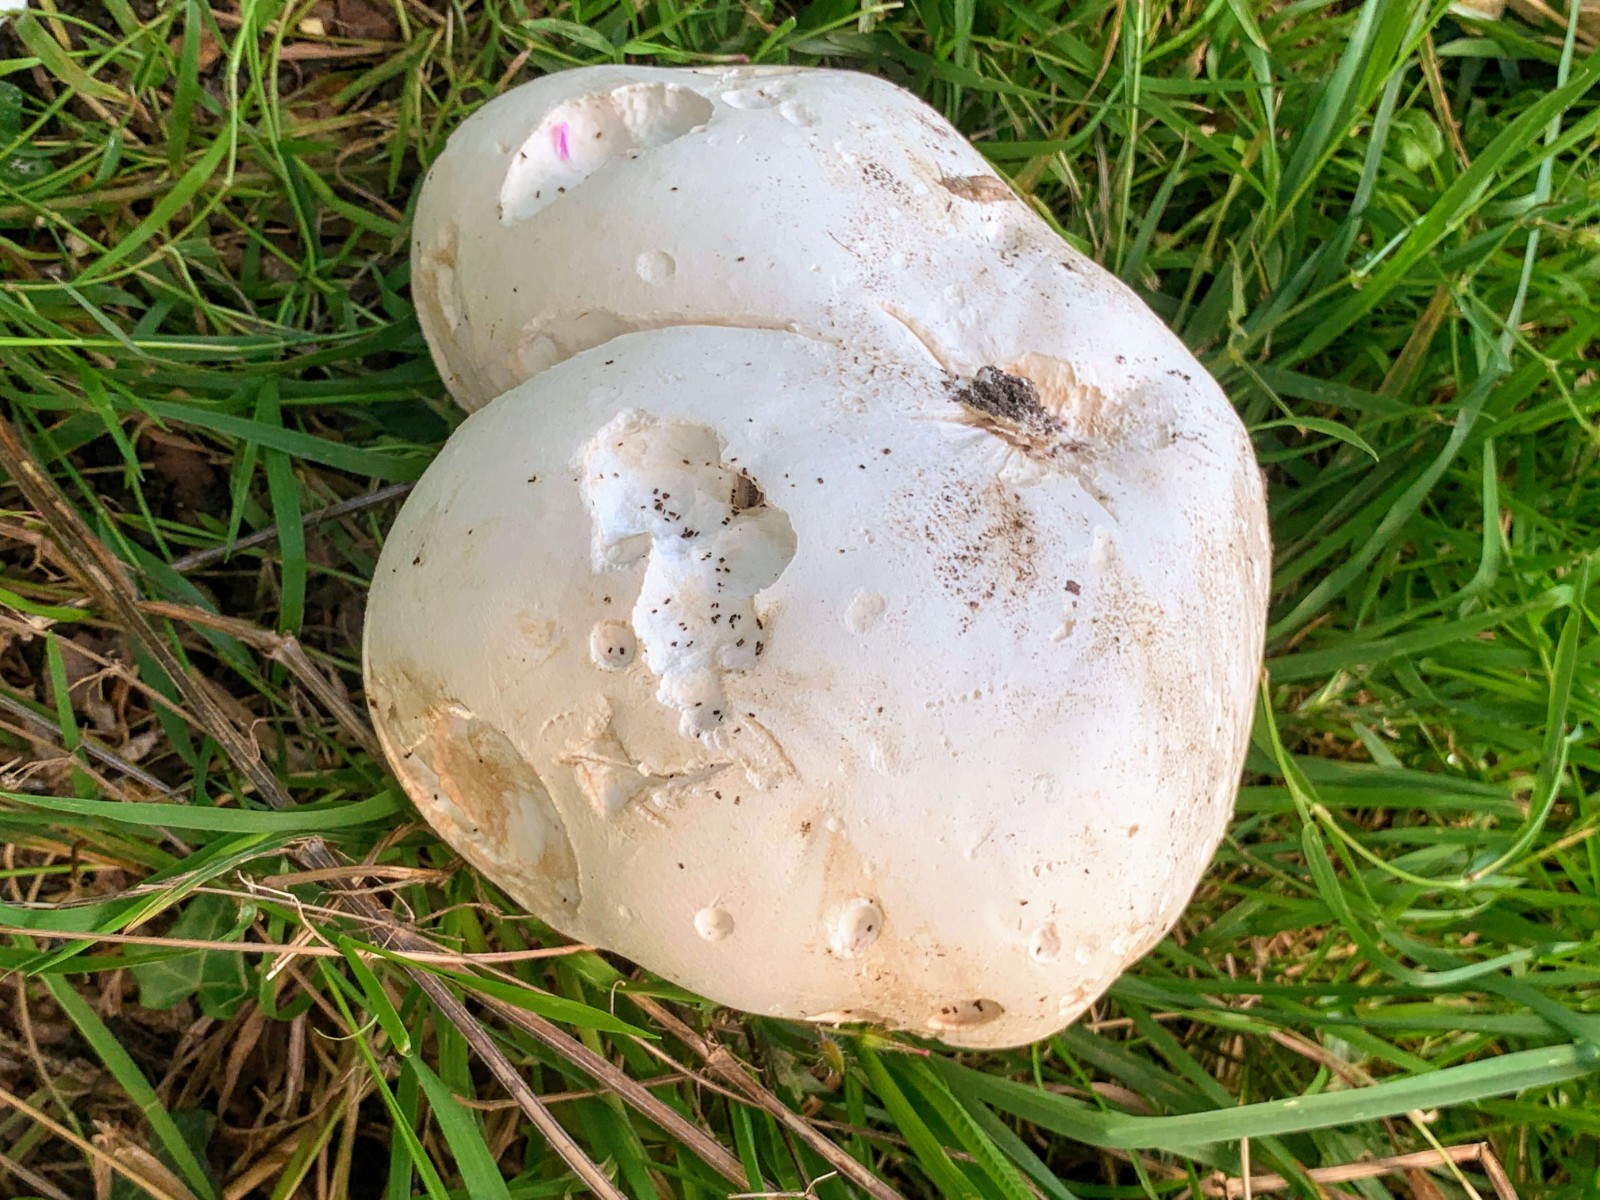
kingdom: Fungi
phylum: Basidiomycota
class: Agaricomycetes
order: Agaricales
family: Lycoperdaceae
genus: Calvatia
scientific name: Calvatia gigantea
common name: kæmpestøvbold
